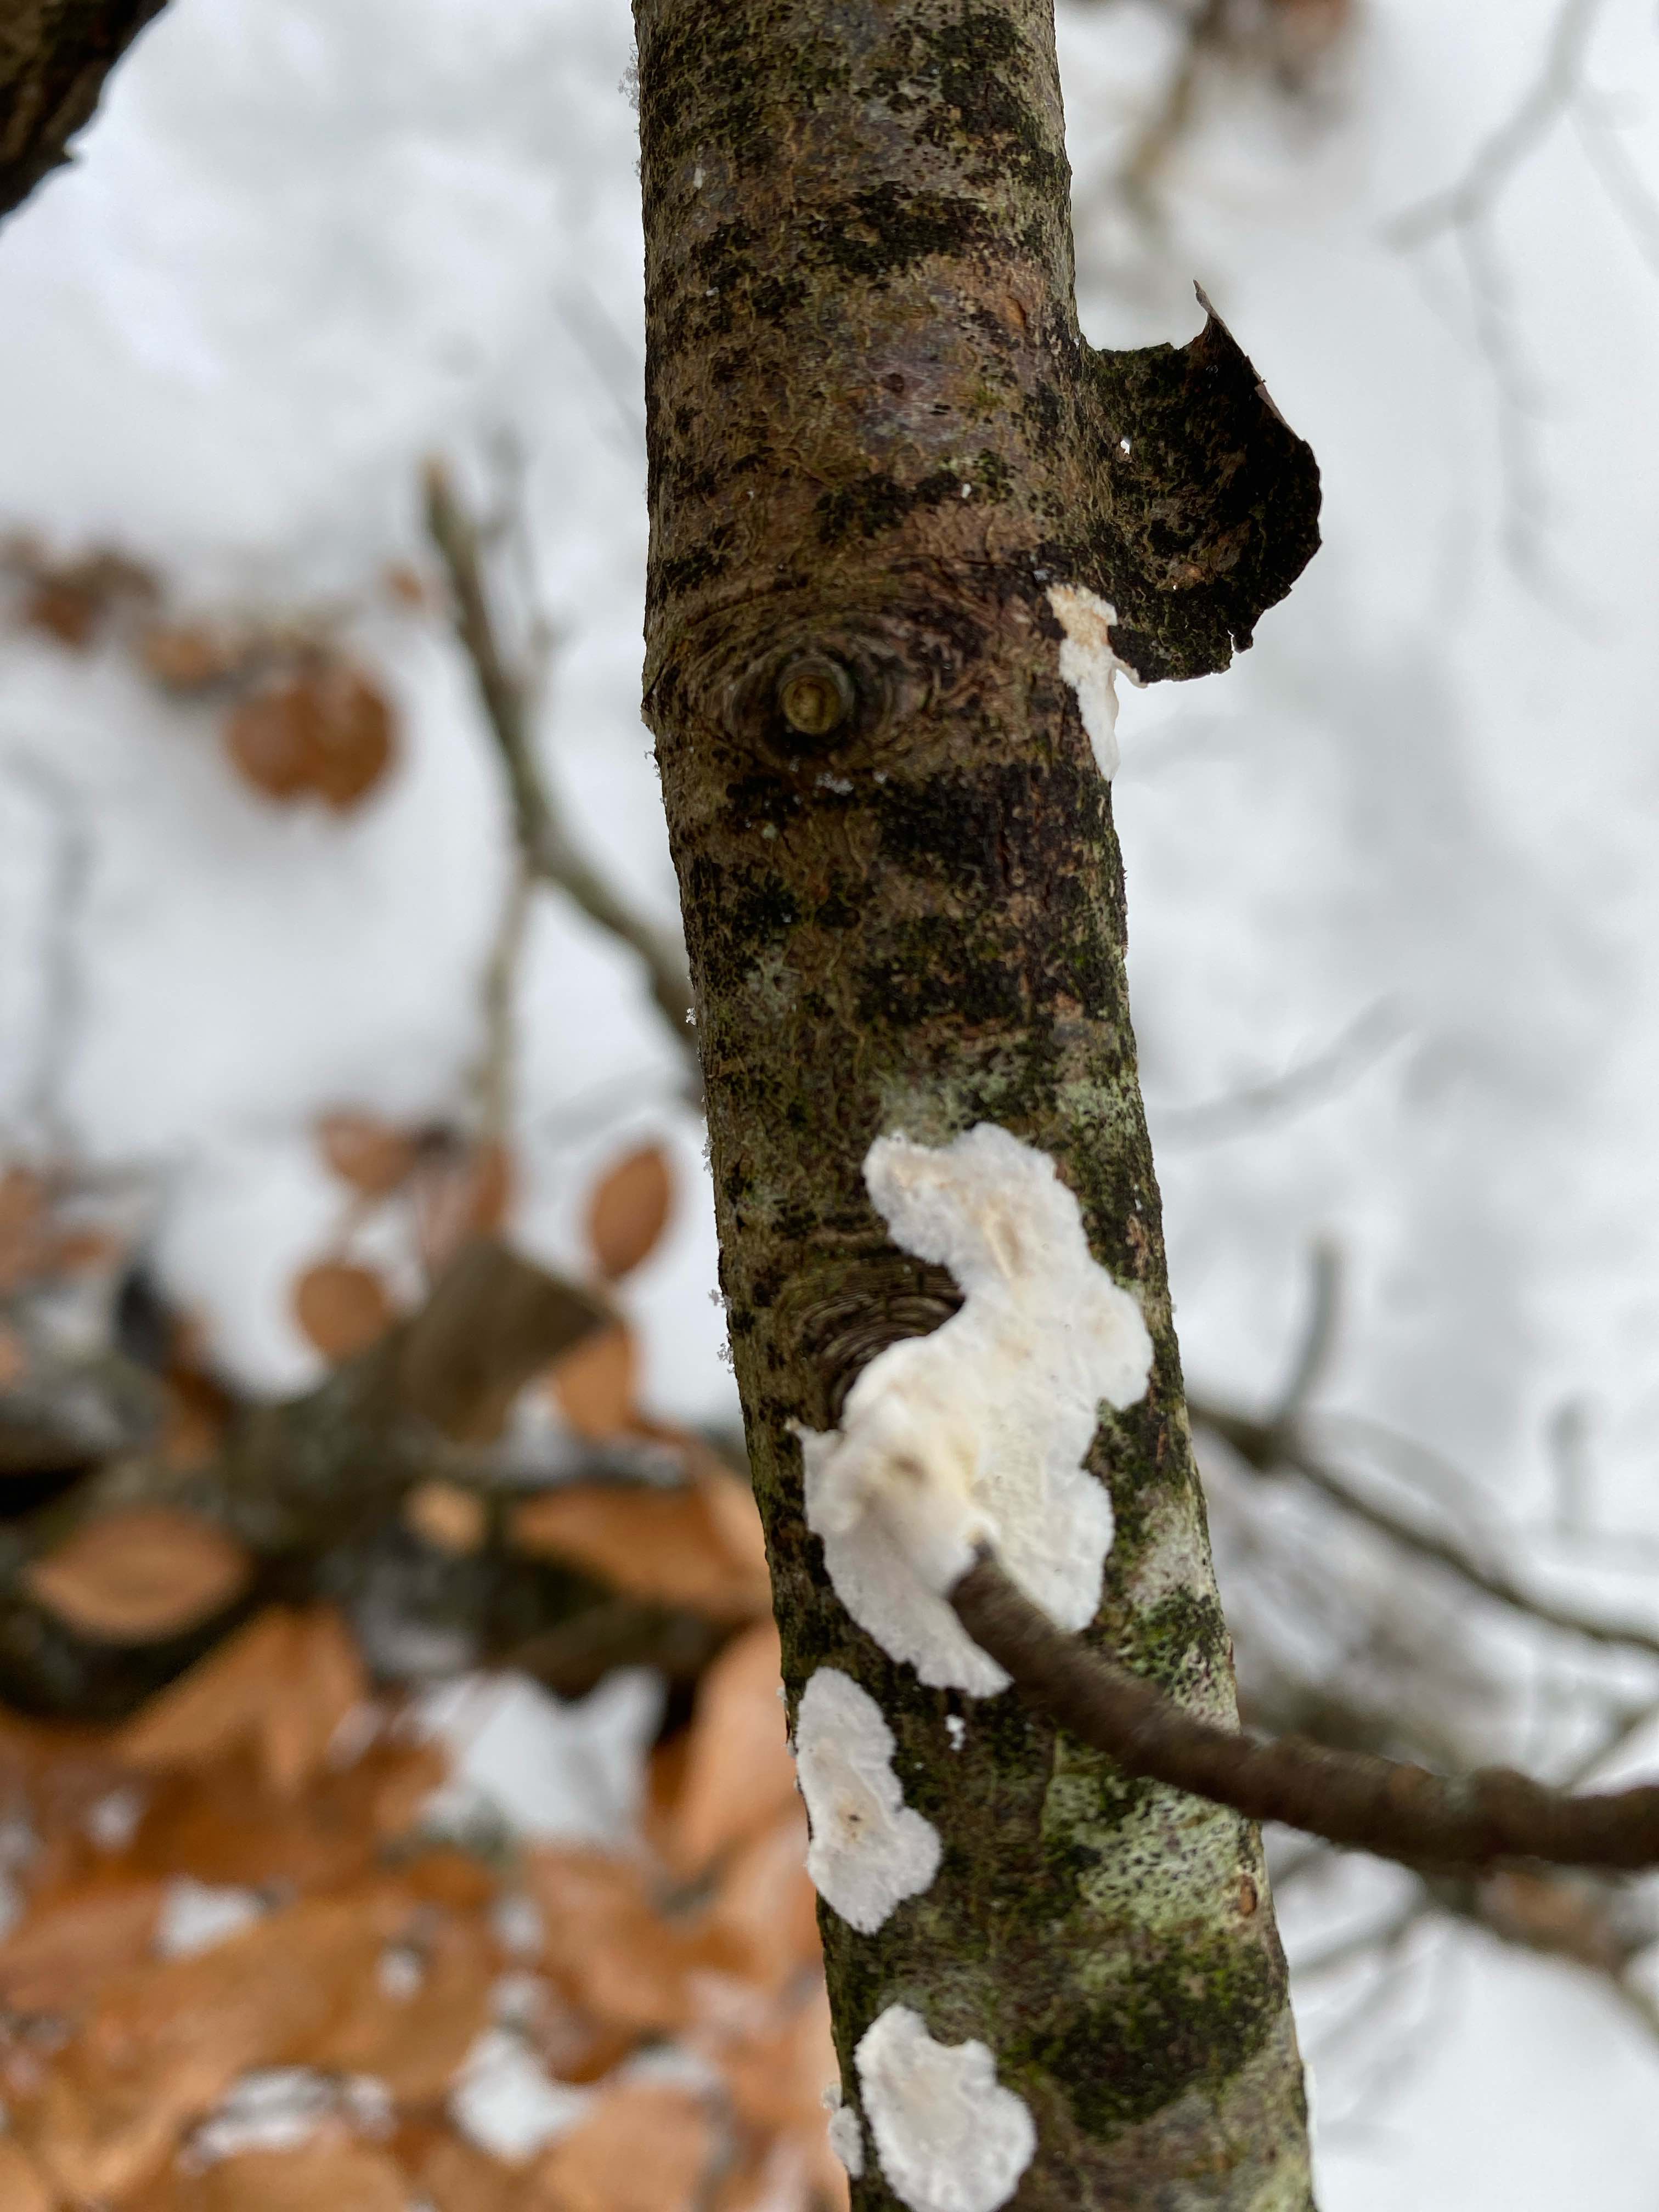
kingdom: Fungi
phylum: Basidiomycota
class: Agaricomycetes
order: Polyporales
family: Irpicaceae
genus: Byssomerulius
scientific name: Byssomerulius corium
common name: læder-åresvamp
